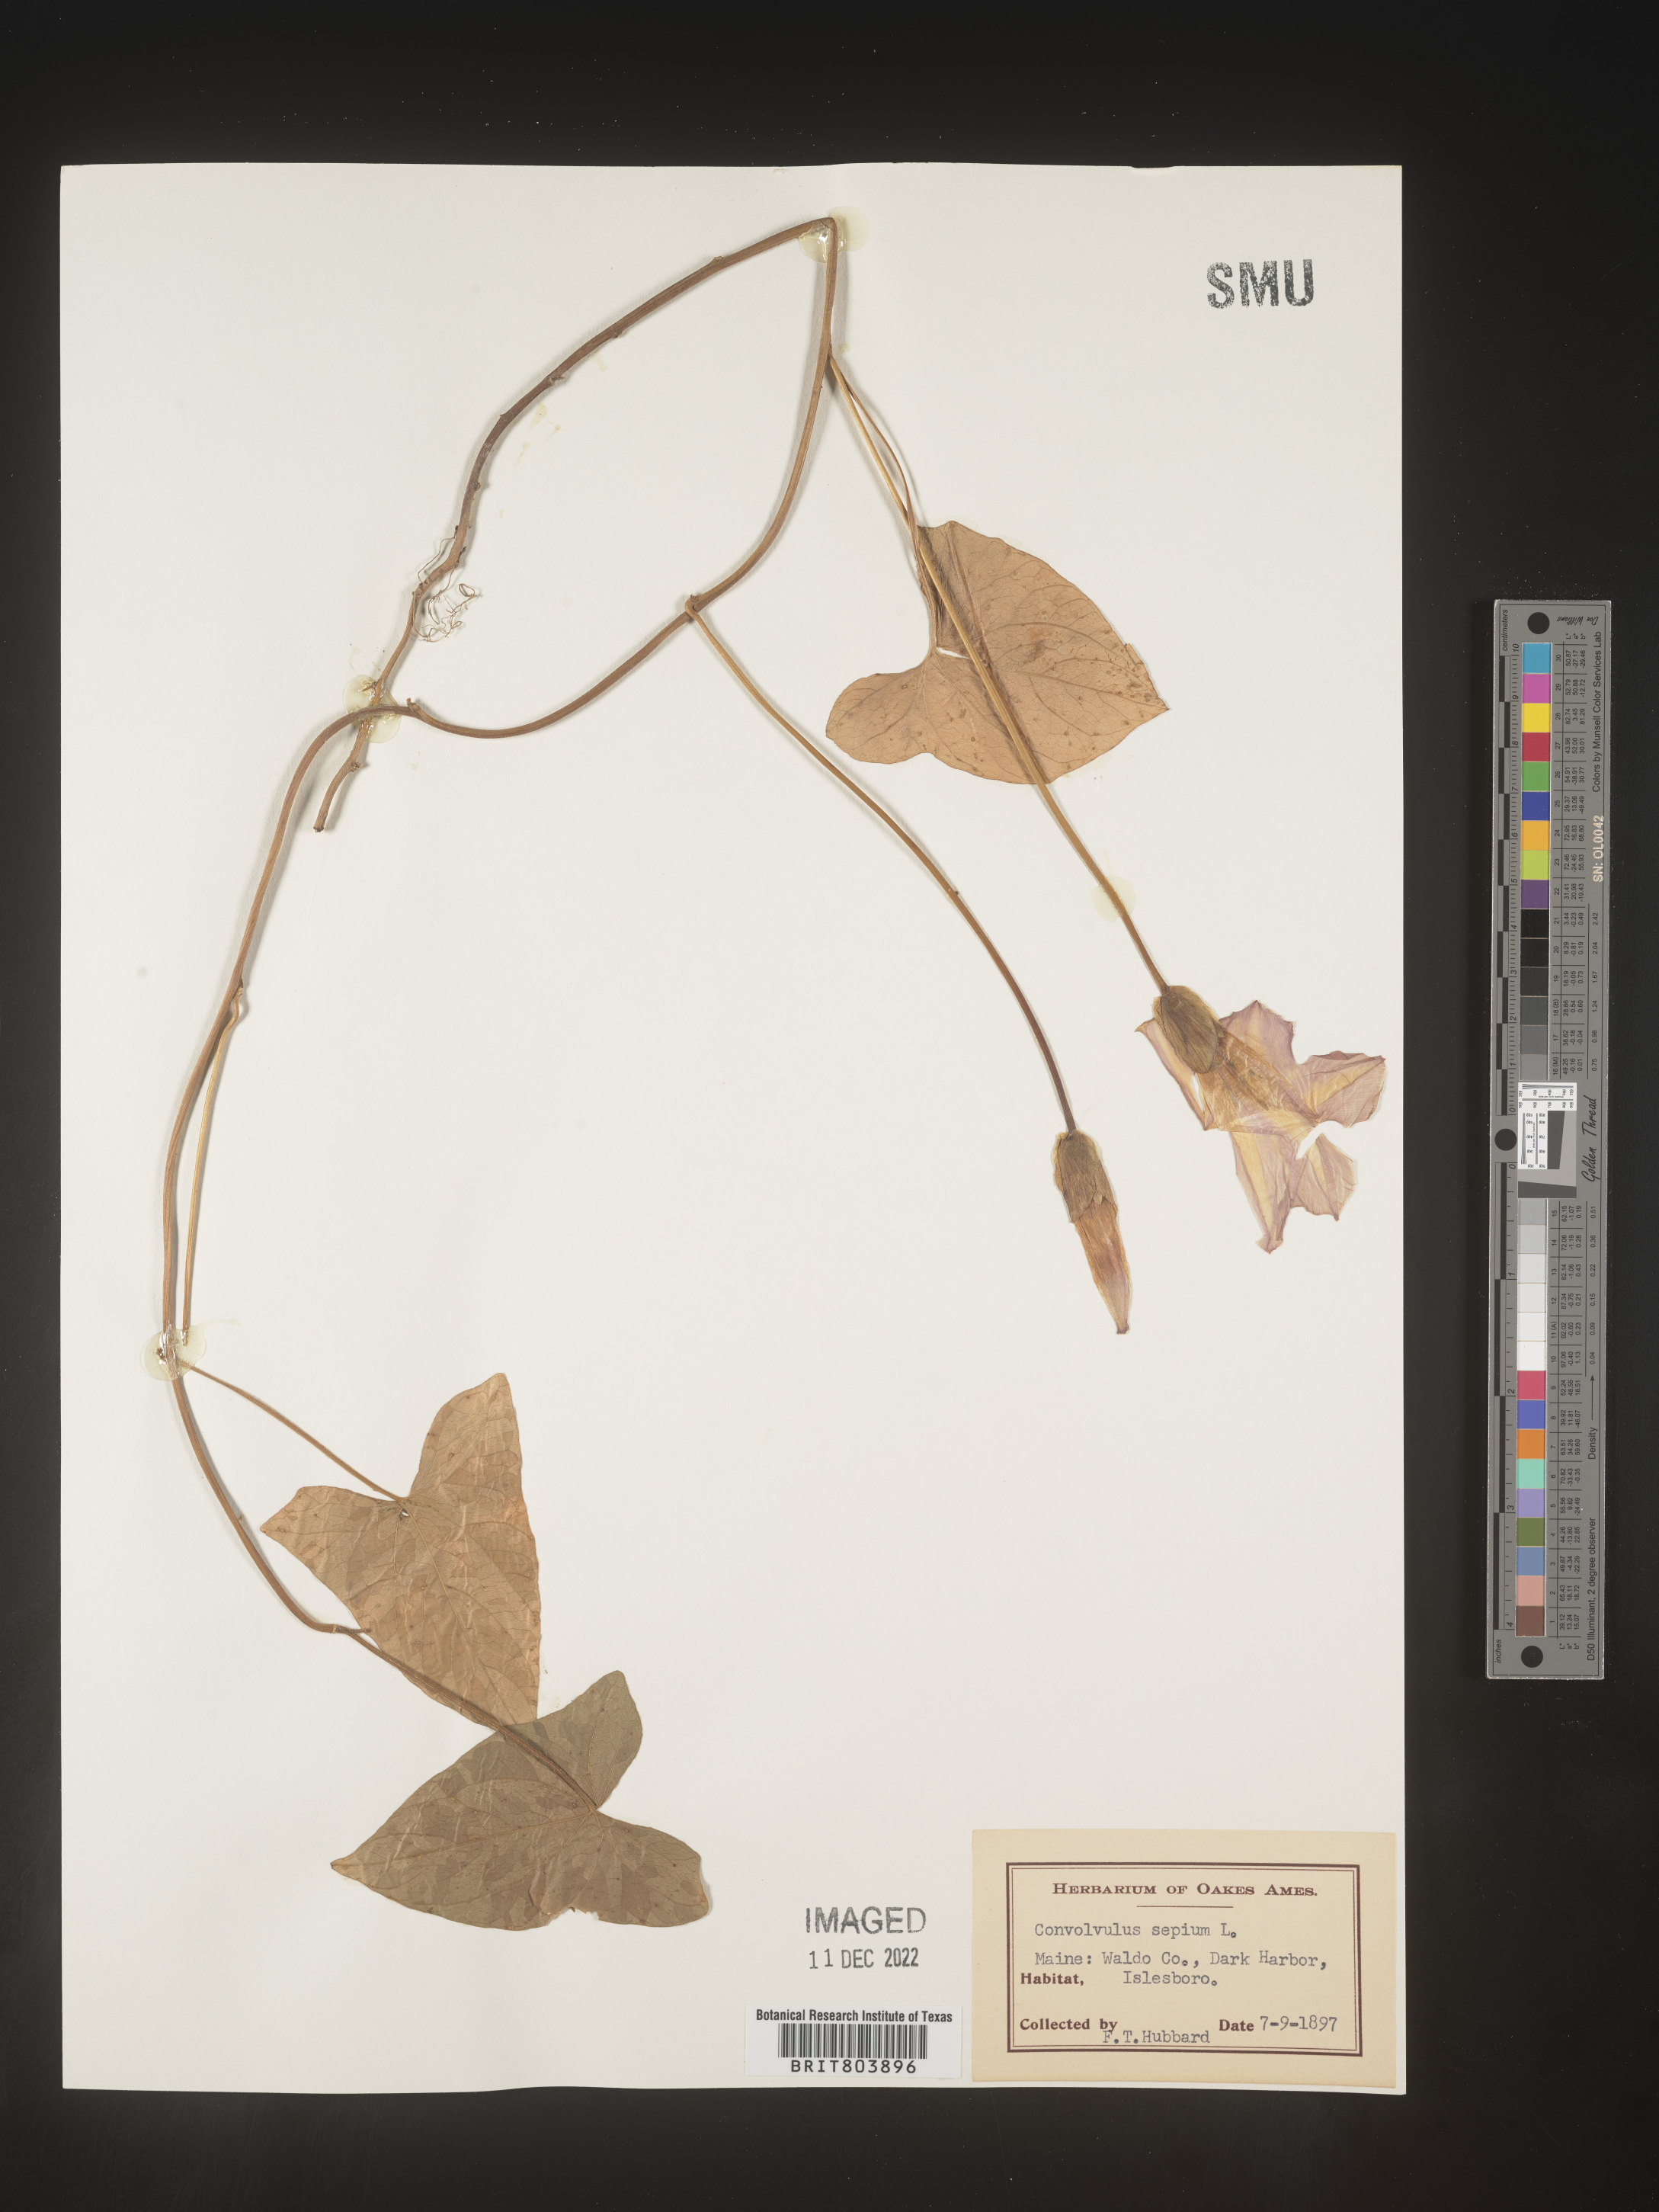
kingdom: Plantae
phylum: Tracheophyta
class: Magnoliopsida
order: Solanales
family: Convolvulaceae
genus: Calystegia
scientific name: Calystegia sepium
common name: Hedge bindweed
